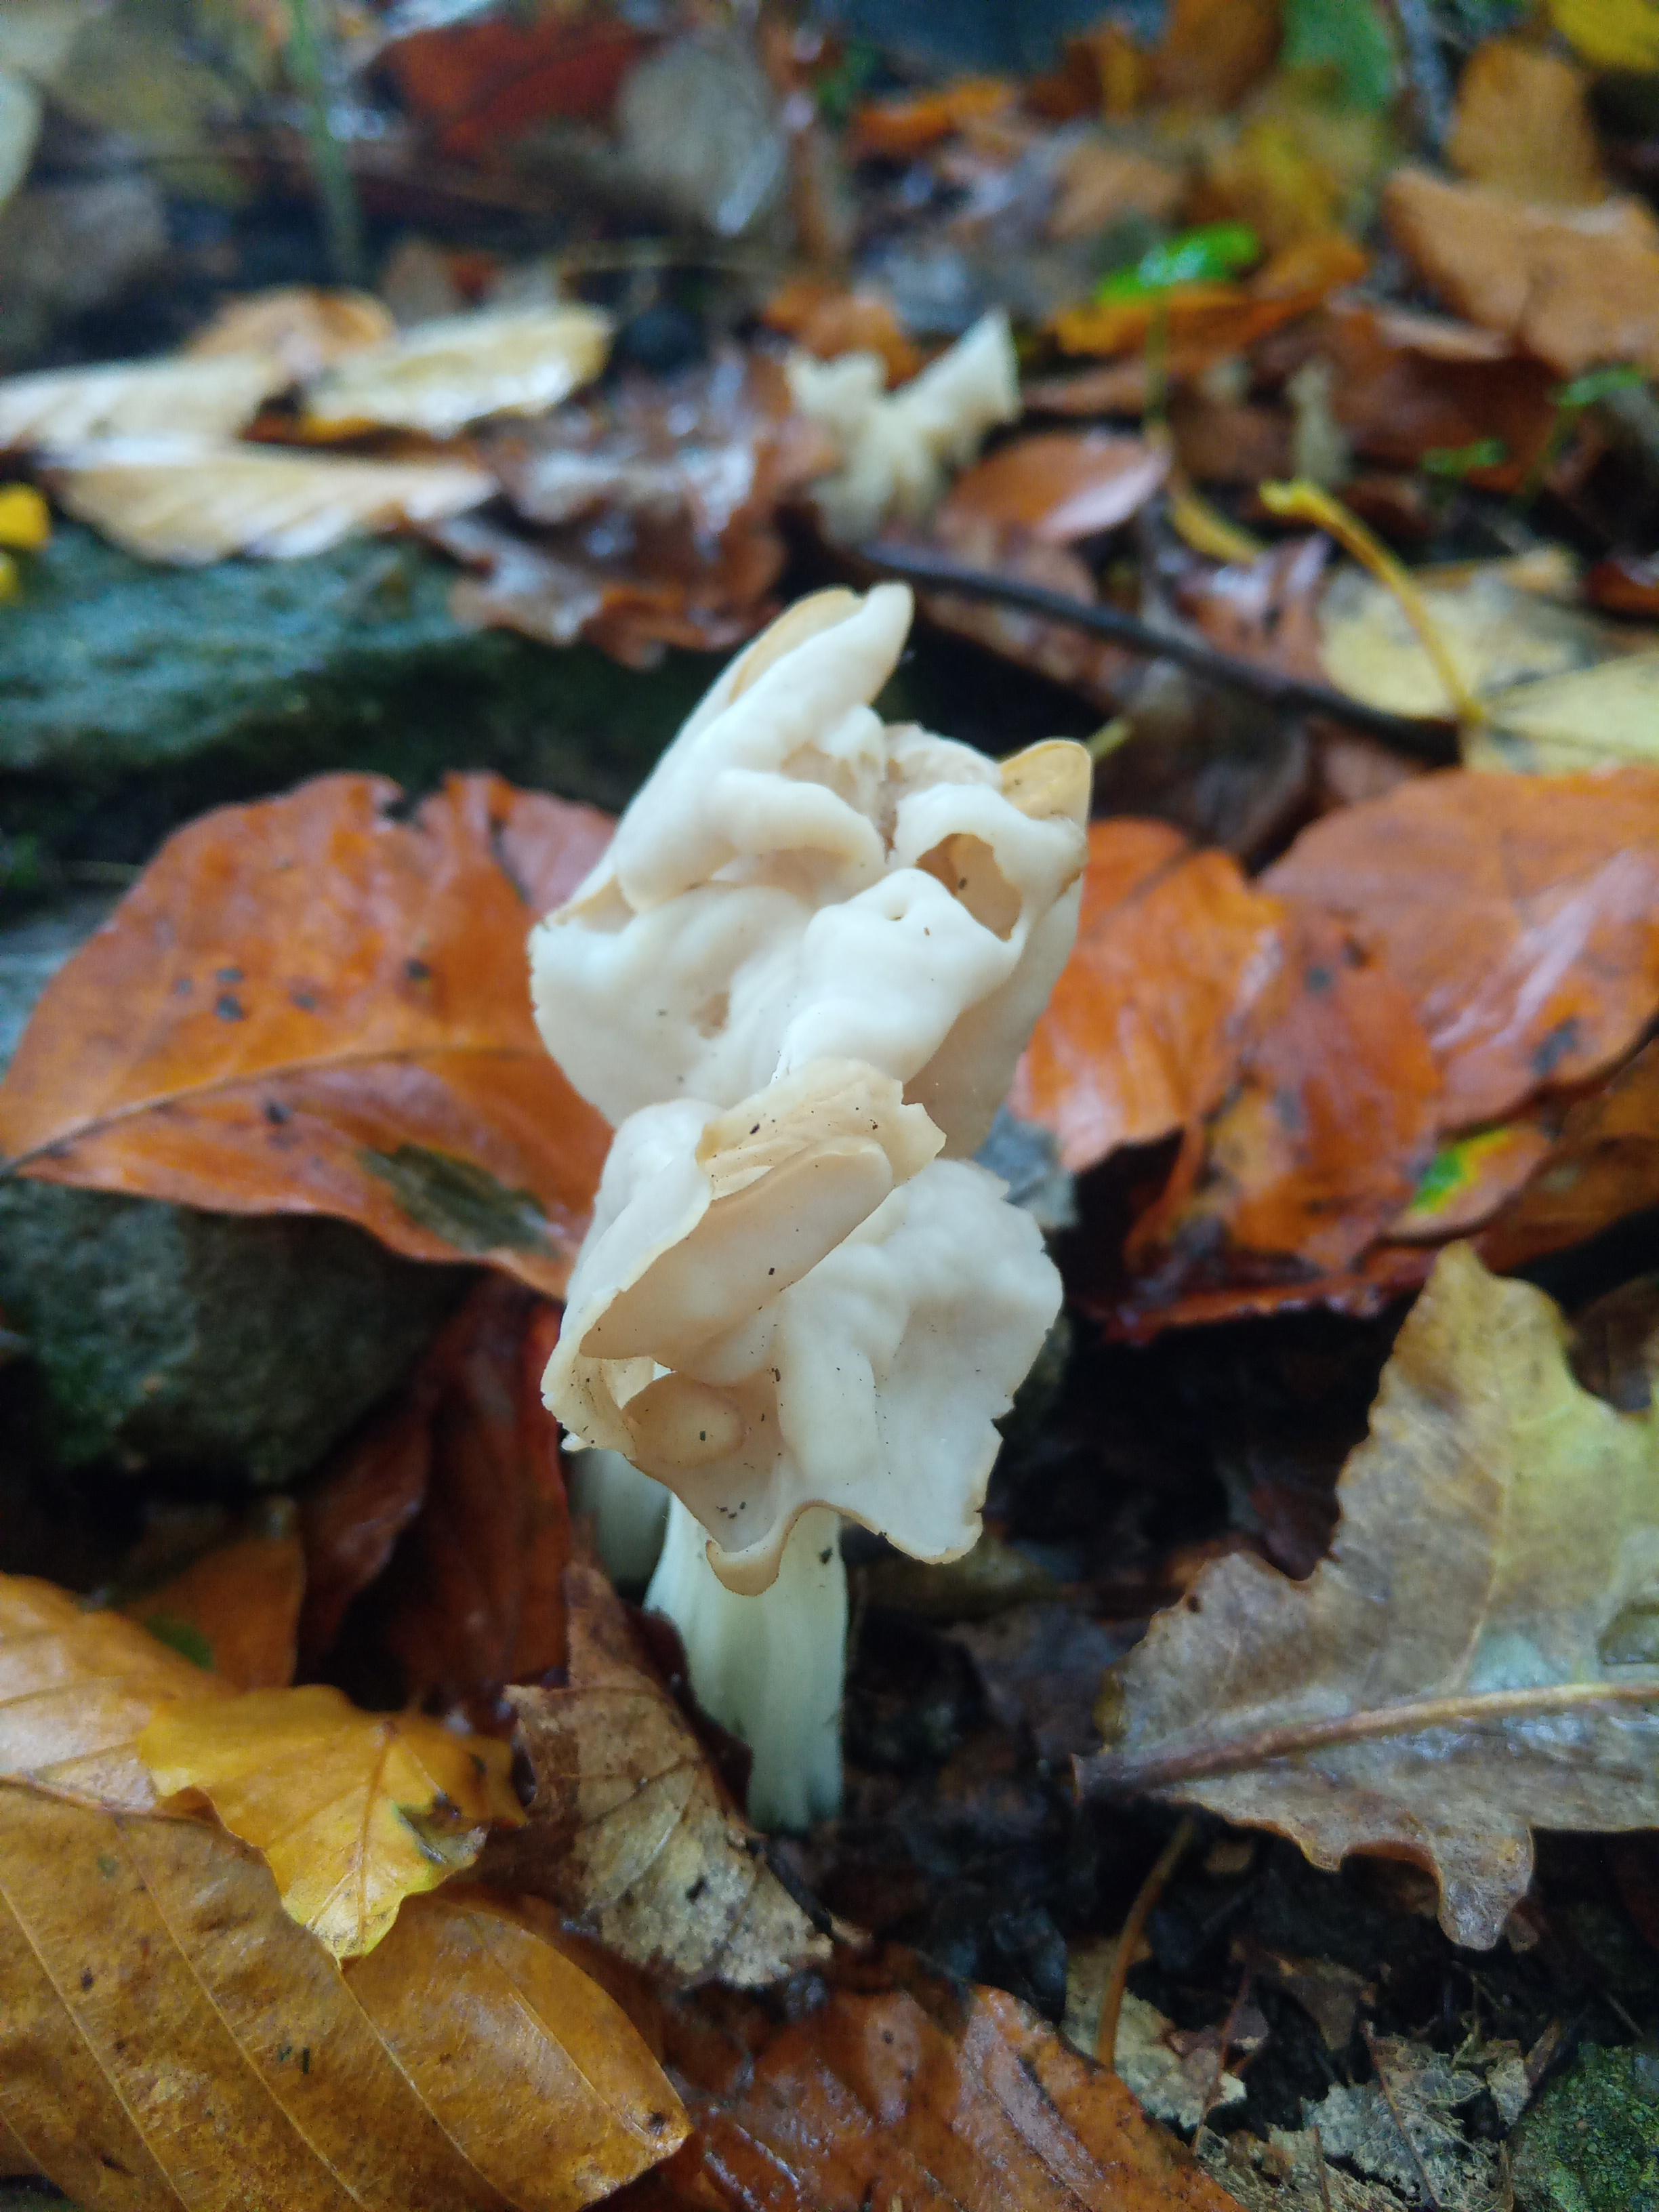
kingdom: Fungi
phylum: Ascomycota
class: Pezizomycetes
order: Pezizales
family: Helvellaceae
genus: Helvella
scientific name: Helvella crispa
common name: kruset foldhat
